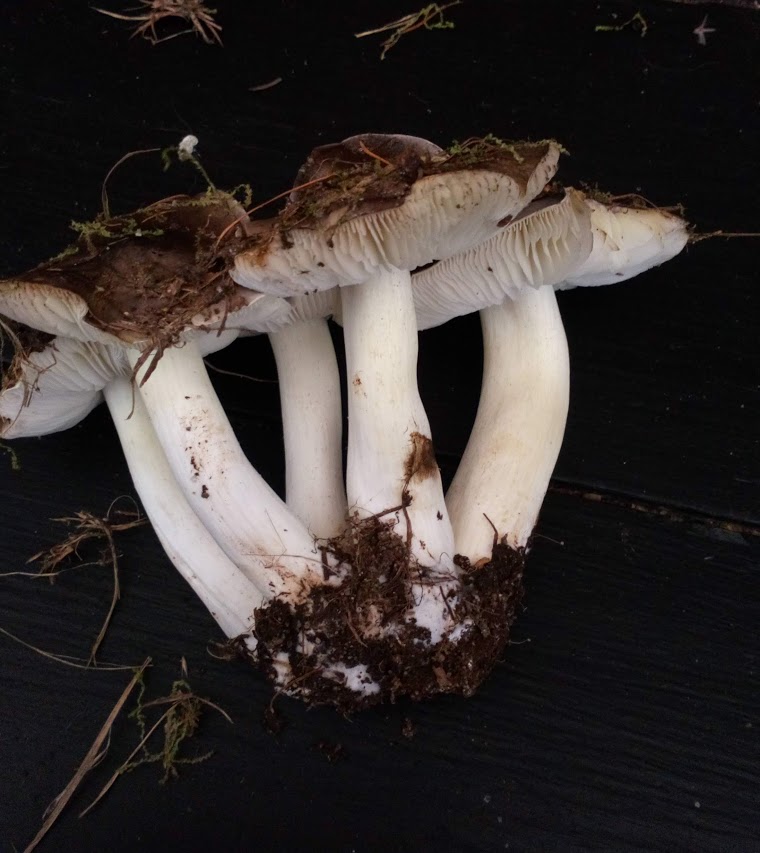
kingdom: Fungi
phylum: Basidiomycota
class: Agaricomycetes
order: Agaricales
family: Tricholomataceae
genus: Tricholoma
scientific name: Tricholoma portentosum
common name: grå ridderhat
